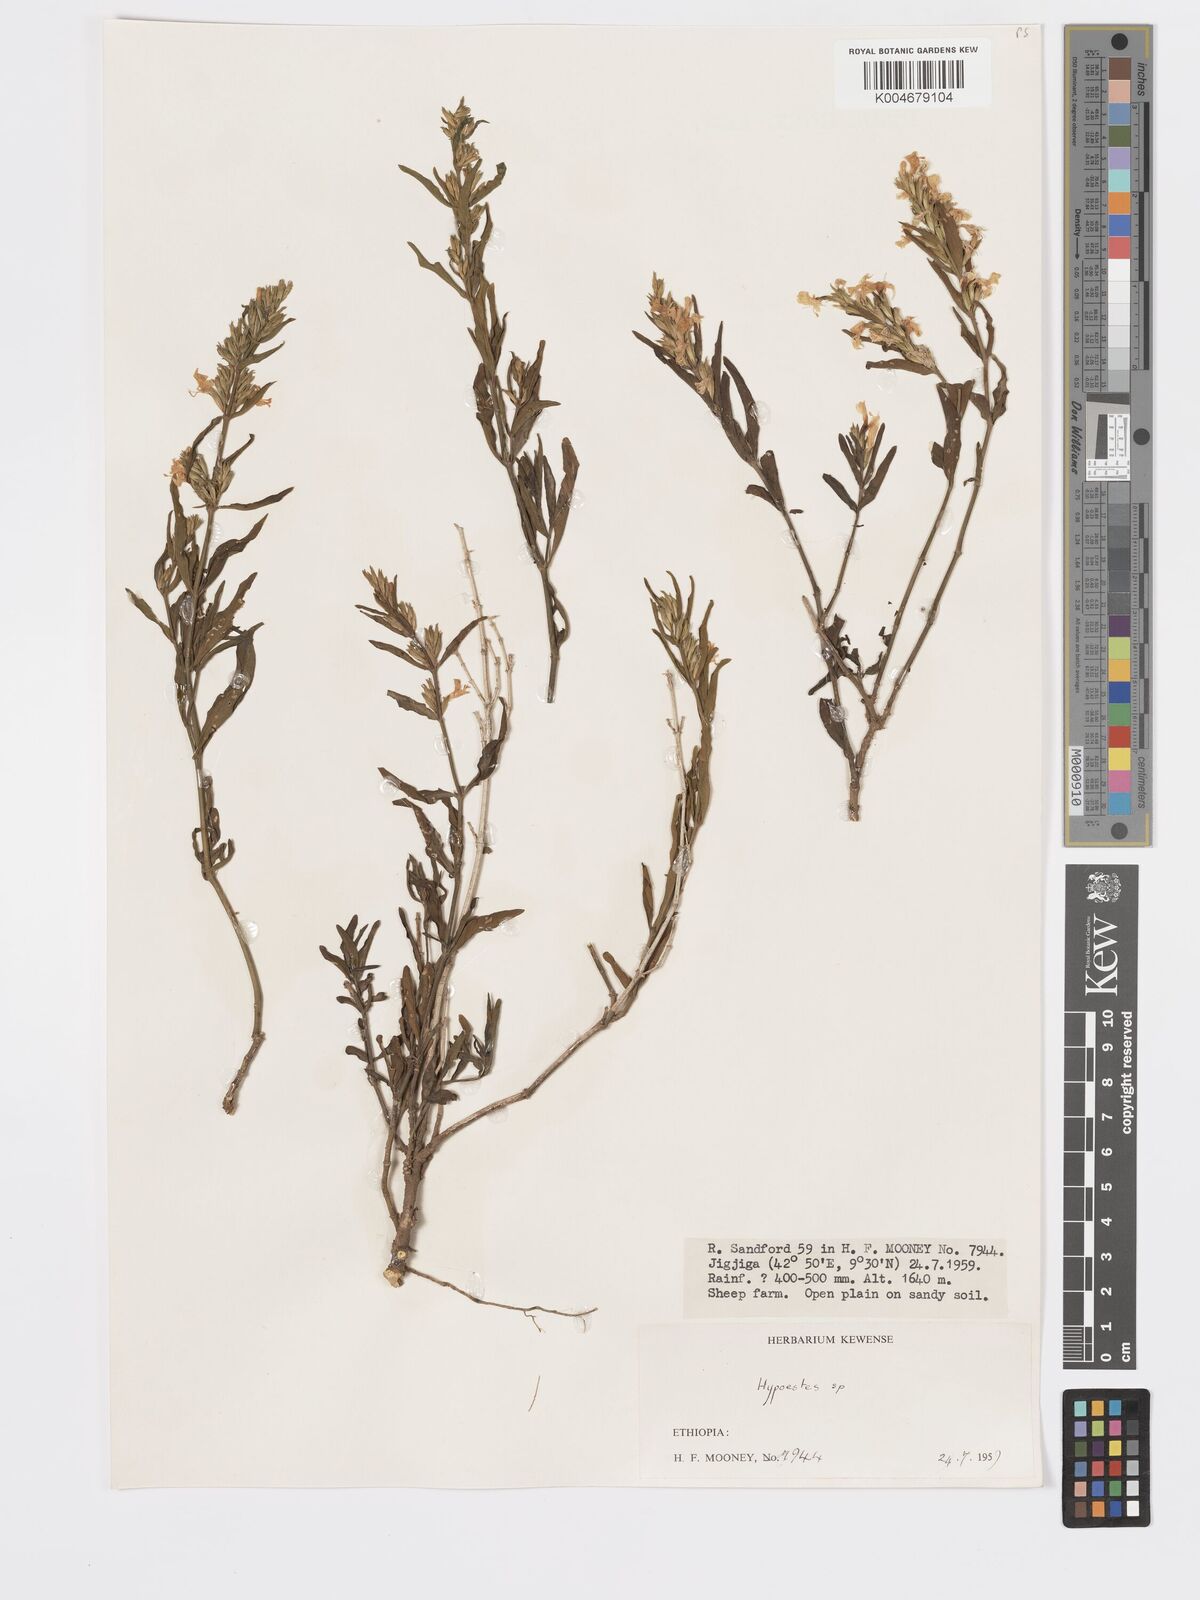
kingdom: Plantae
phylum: Tracheophyta
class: Magnoliopsida
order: Lamiales
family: Acanthaceae
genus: Hypoestes
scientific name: Hypoestes forskaolii
